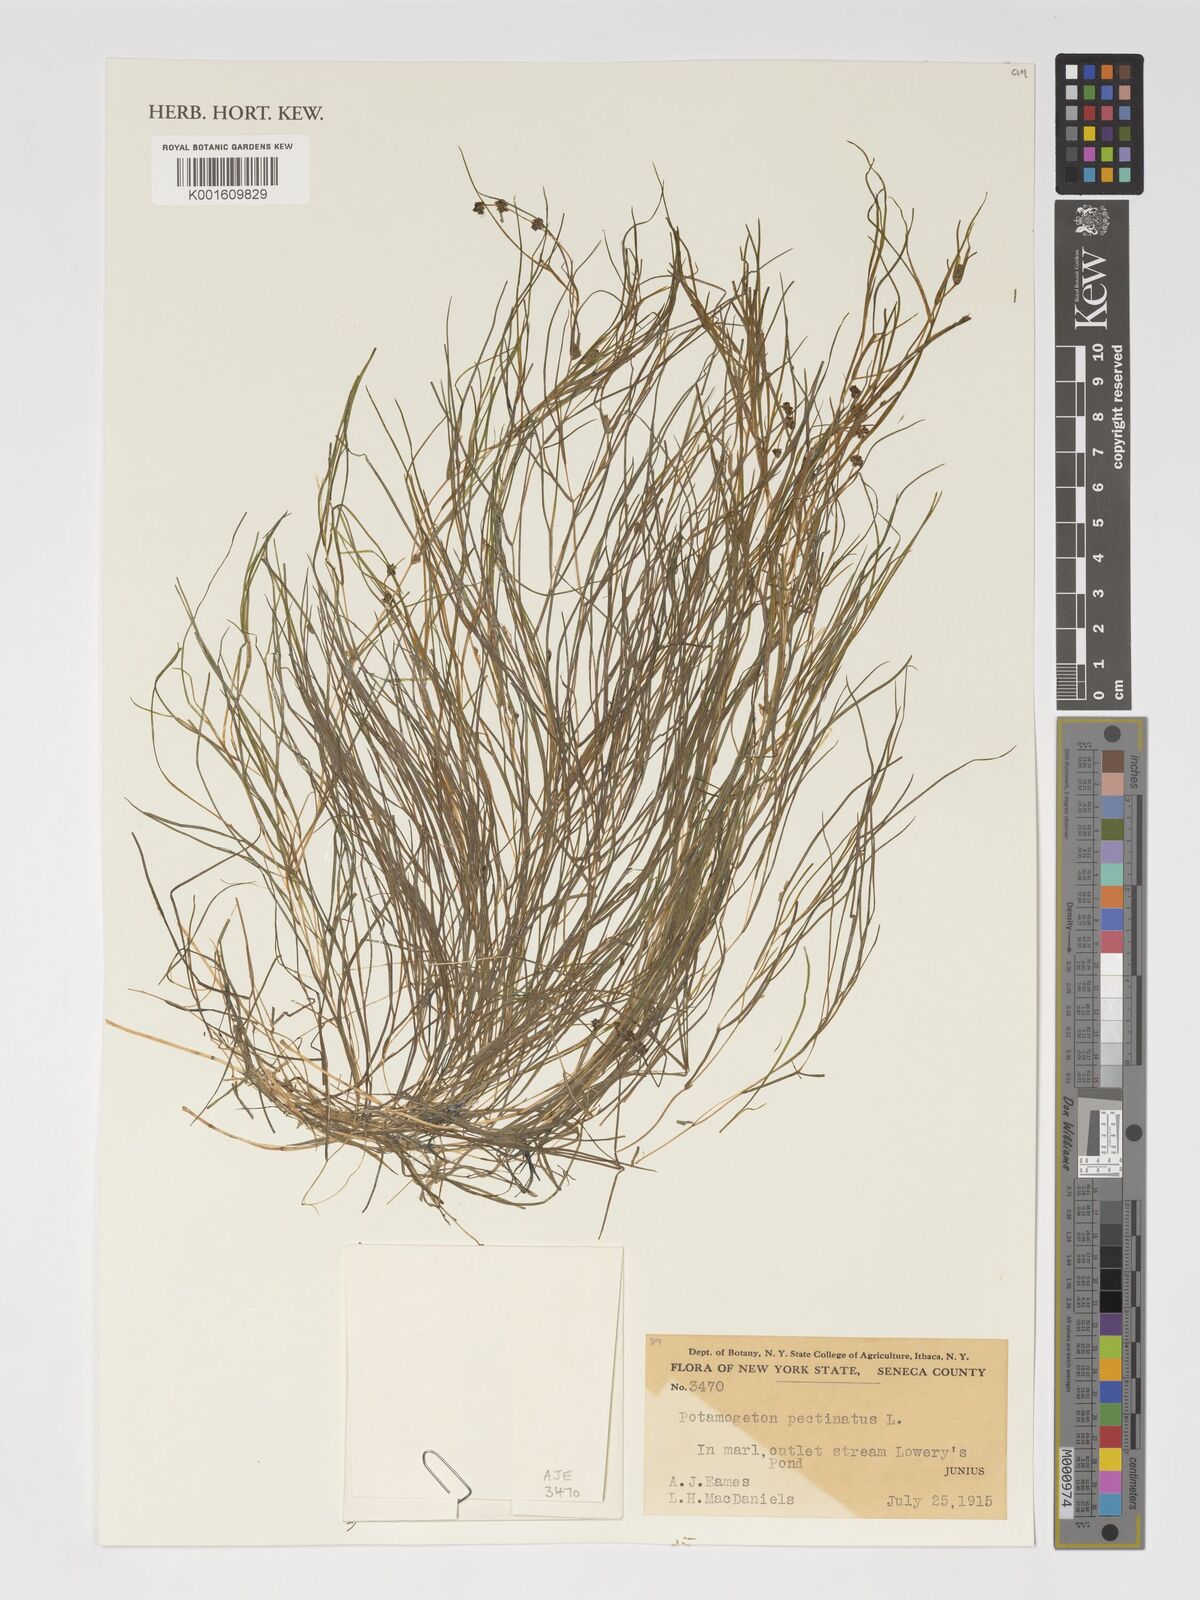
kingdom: Plantae
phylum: Tracheophyta
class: Liliopsida
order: Alismatales
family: Potamogetonaceae
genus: Stuckenia
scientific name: Stuckenia pectinata
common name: Sago pondweed
